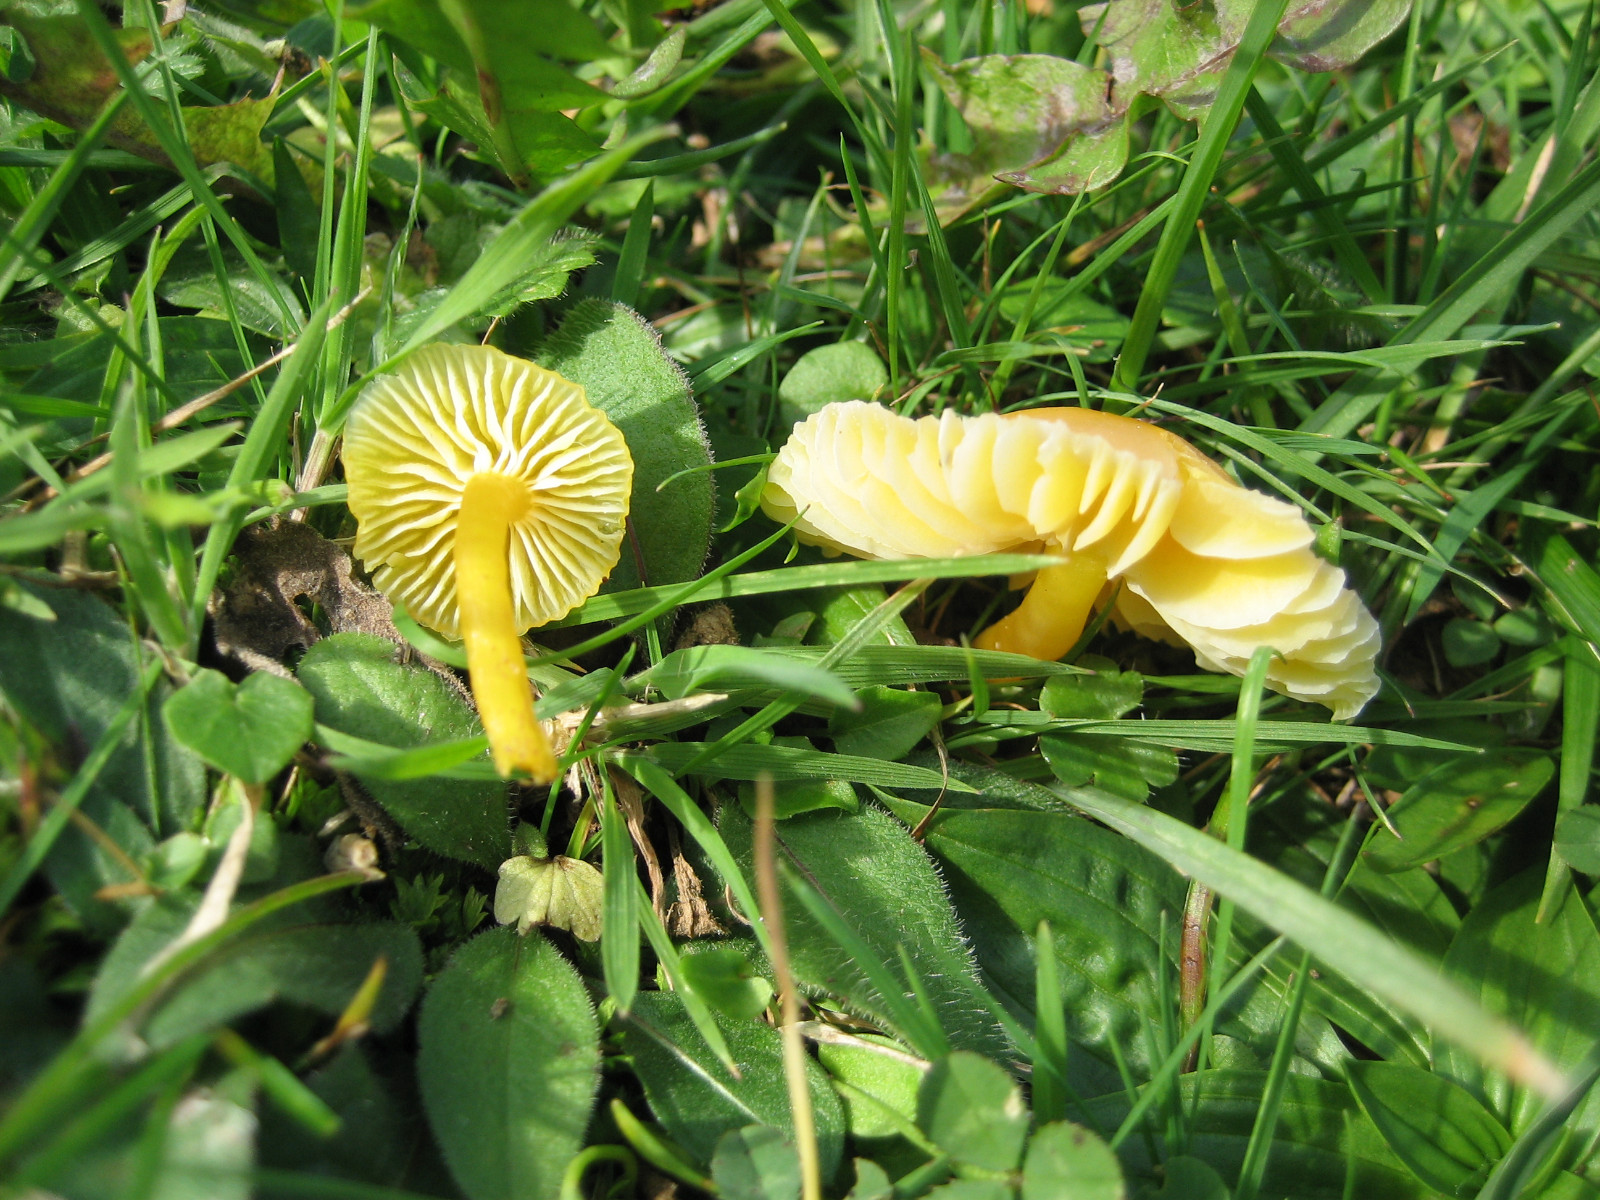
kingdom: Fungi
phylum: Basidiomycota
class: Agaricomycetes
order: Agaricales
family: Hygrophoraceae
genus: Hygrocybe
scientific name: Hygrocybe ceracea
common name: voksgul vokshat
